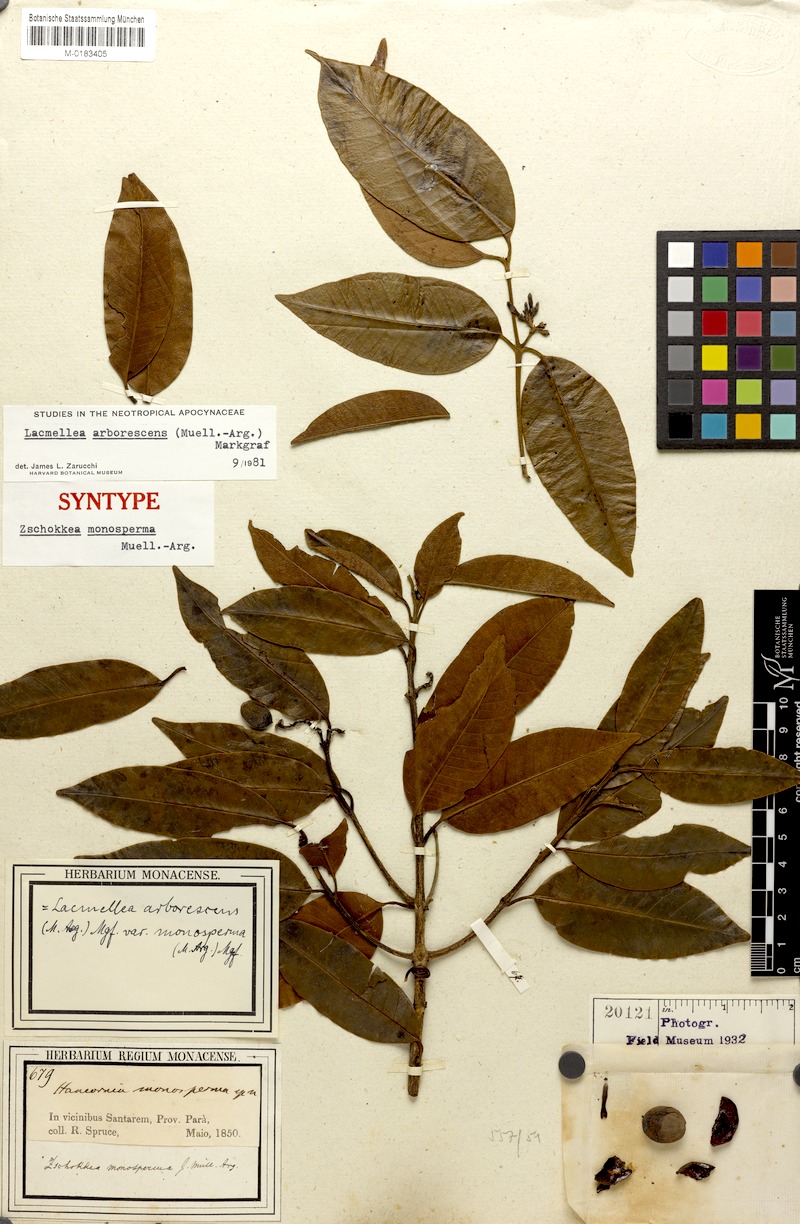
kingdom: Plantae
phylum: Tracheophyta
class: Magnoliopsida
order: Gentianales
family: Apocynaceae
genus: Lacmellea
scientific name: Lacmellea arborescens
